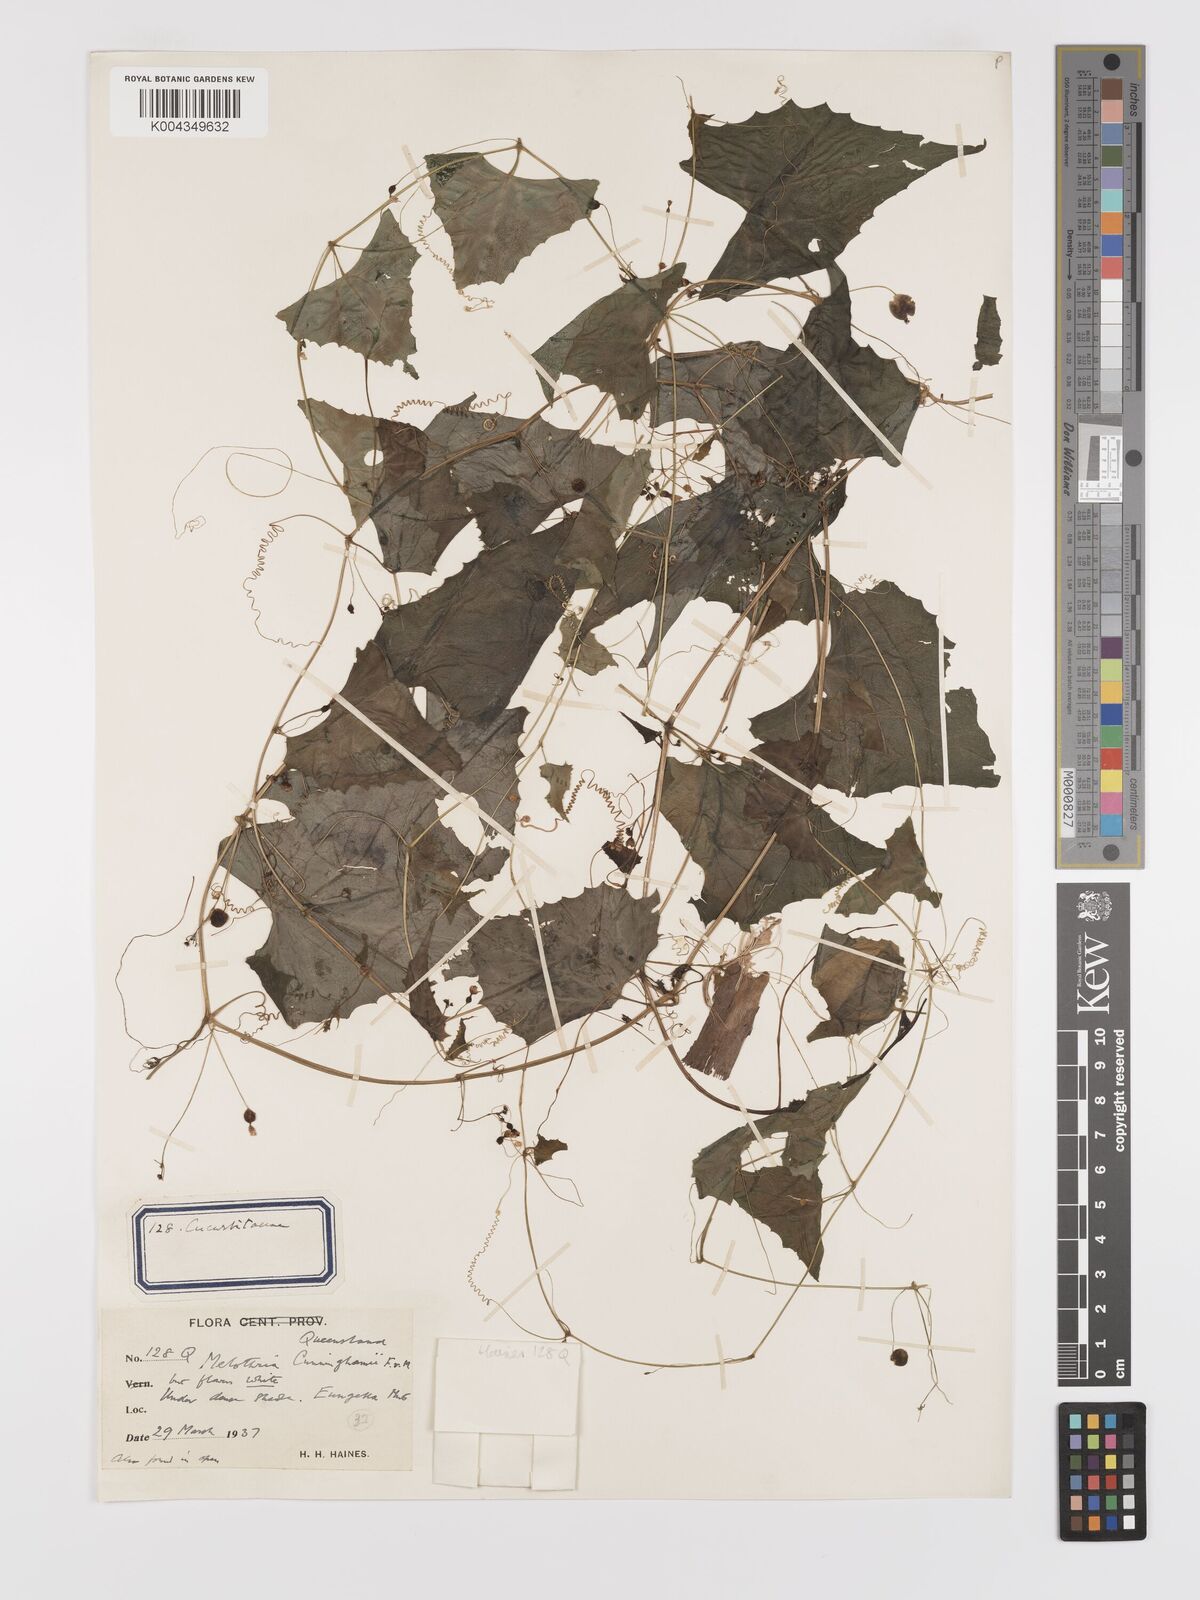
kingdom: Plantae
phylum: Tracheophyta
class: Magnoliopsida
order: Cucurbitales
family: Cucurbitaceae
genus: Zehneria
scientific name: Zehneria cunninghamii
